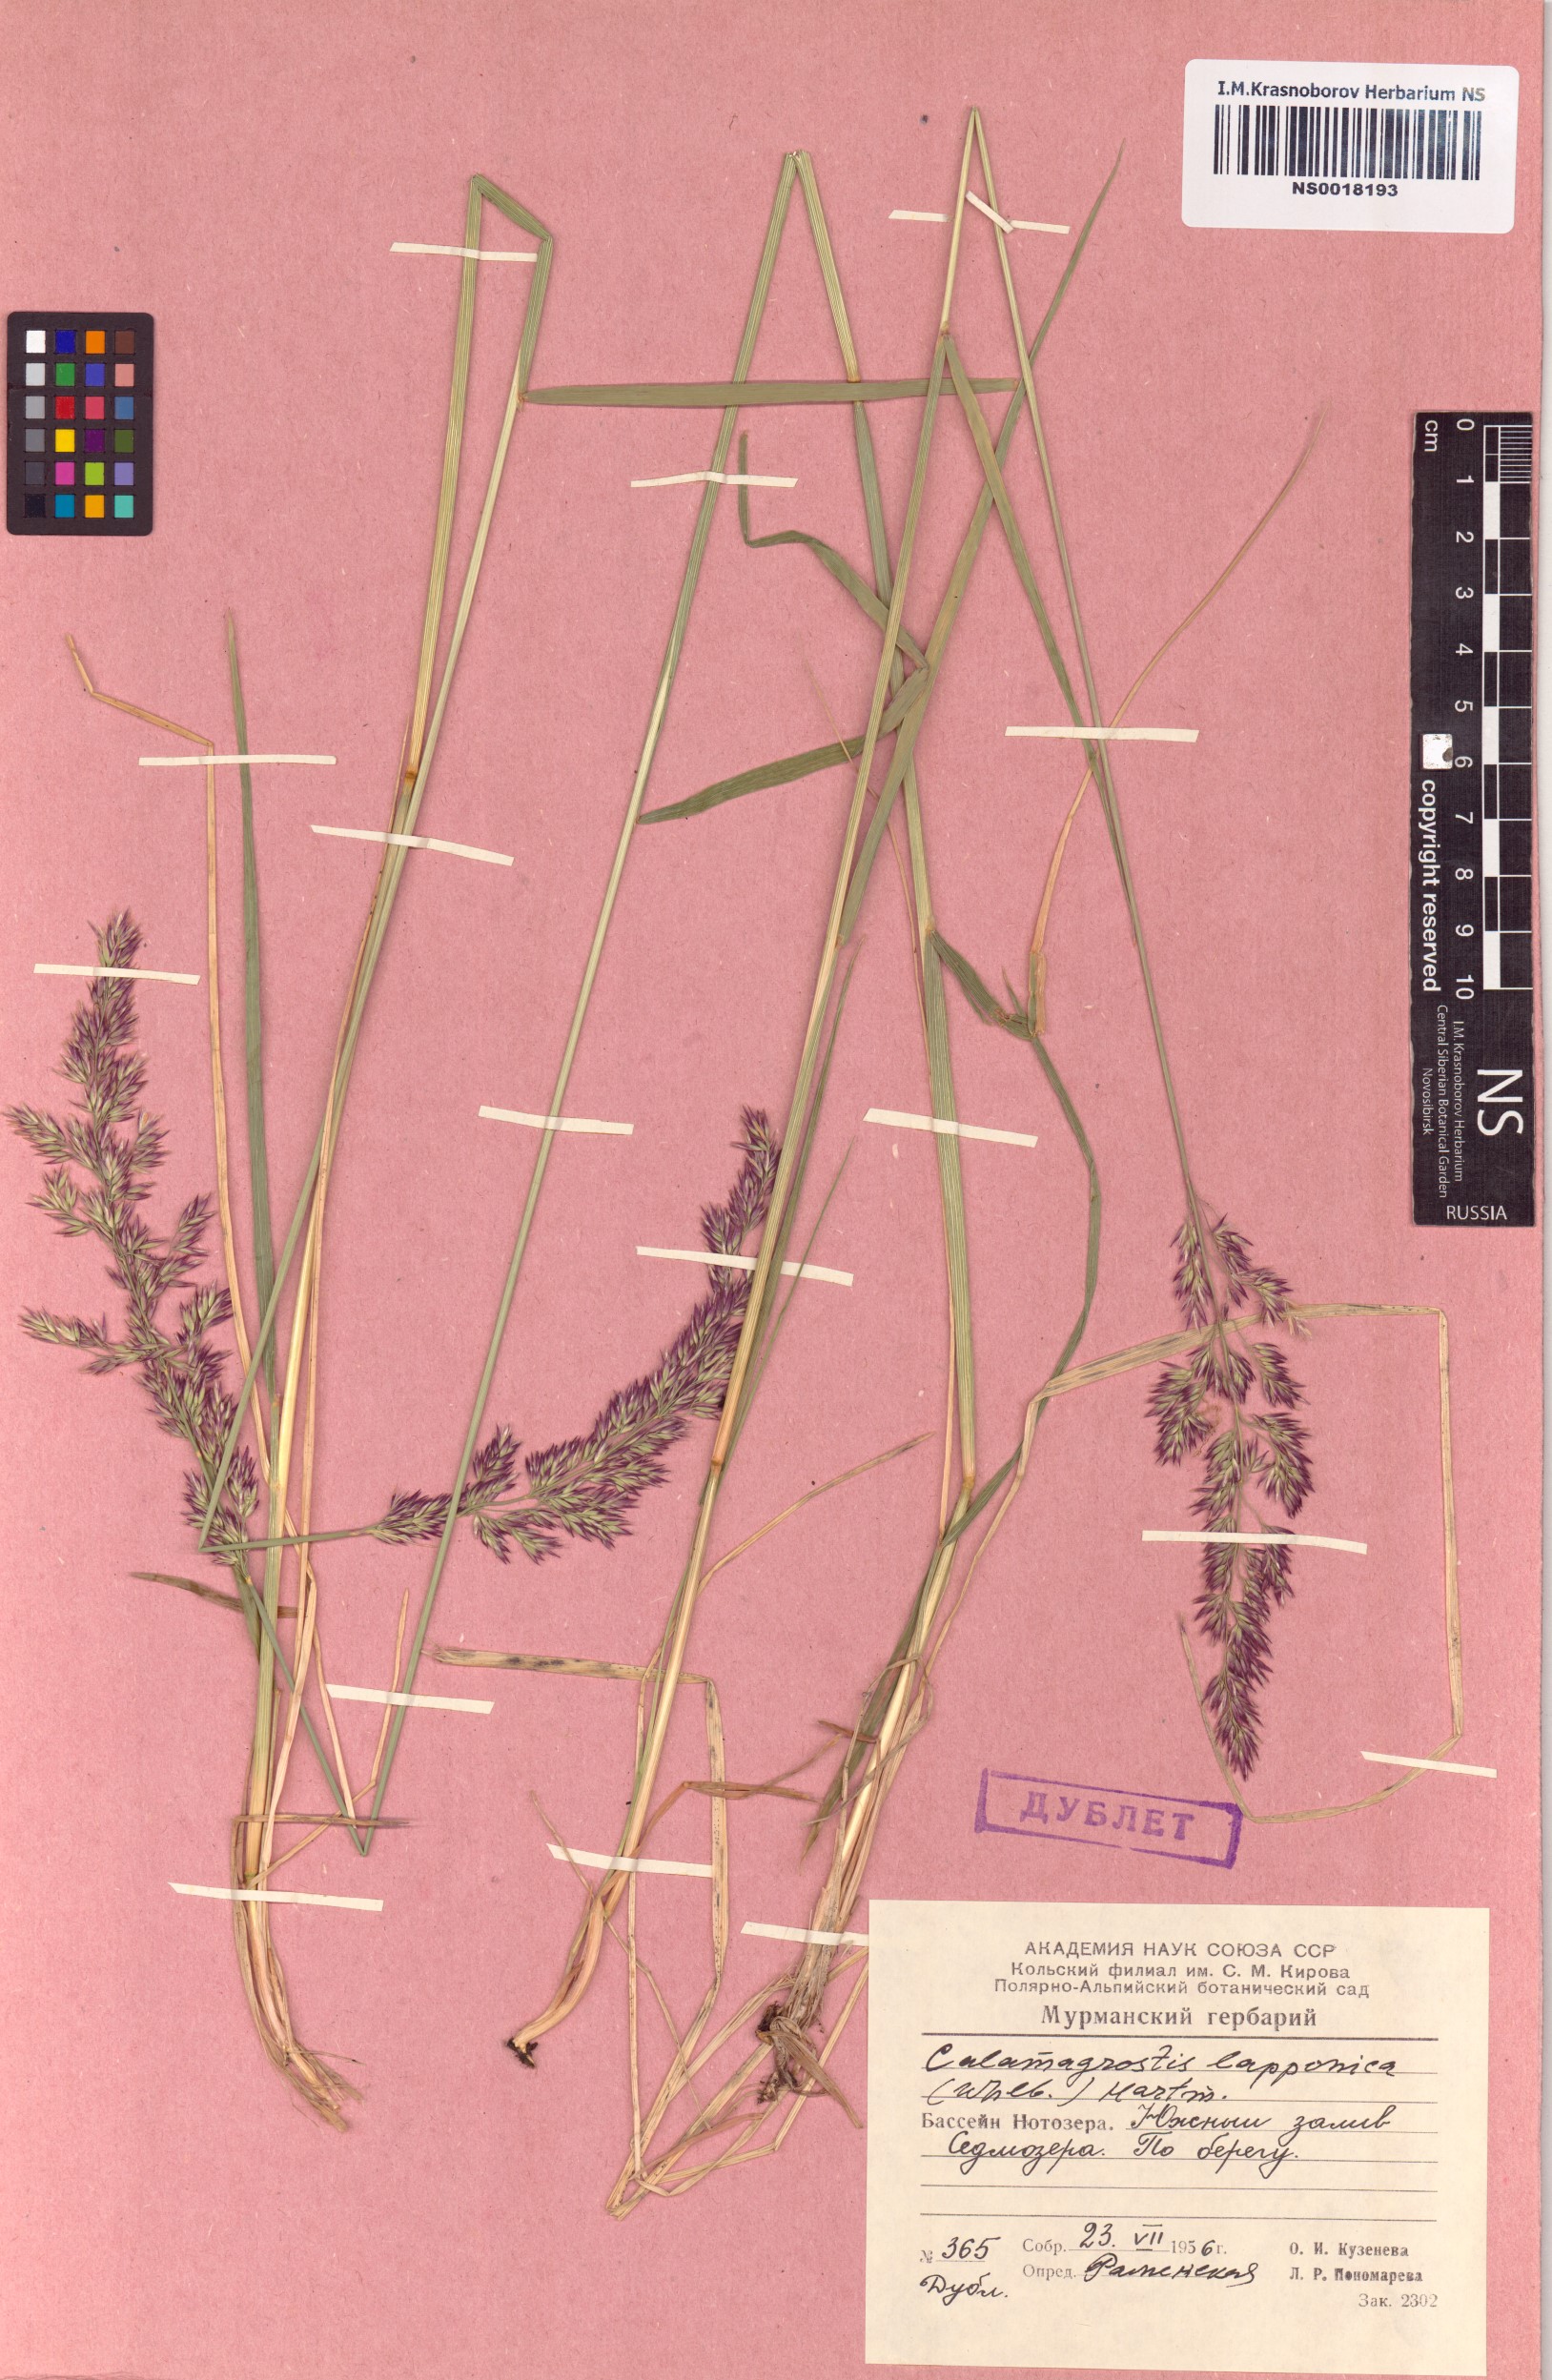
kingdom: Plantae
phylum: Tracheophyta
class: Liliopsida
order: Poales
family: Poaceae
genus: Calamagrostis
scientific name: Calamagrostis lapponica
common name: Lapland reedgrass
